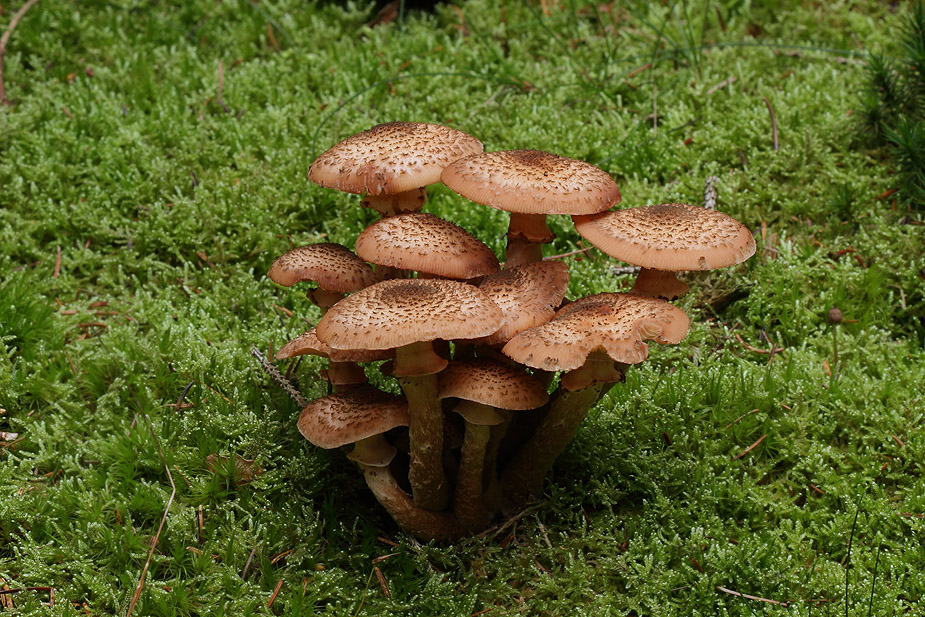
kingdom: Fungi
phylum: Basidiomycota
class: Agaricomycetes
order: Agaricales
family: Physalacriaceae
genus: Armillaria
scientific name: Armillaria ostoyae
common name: mørk honningsvamp
